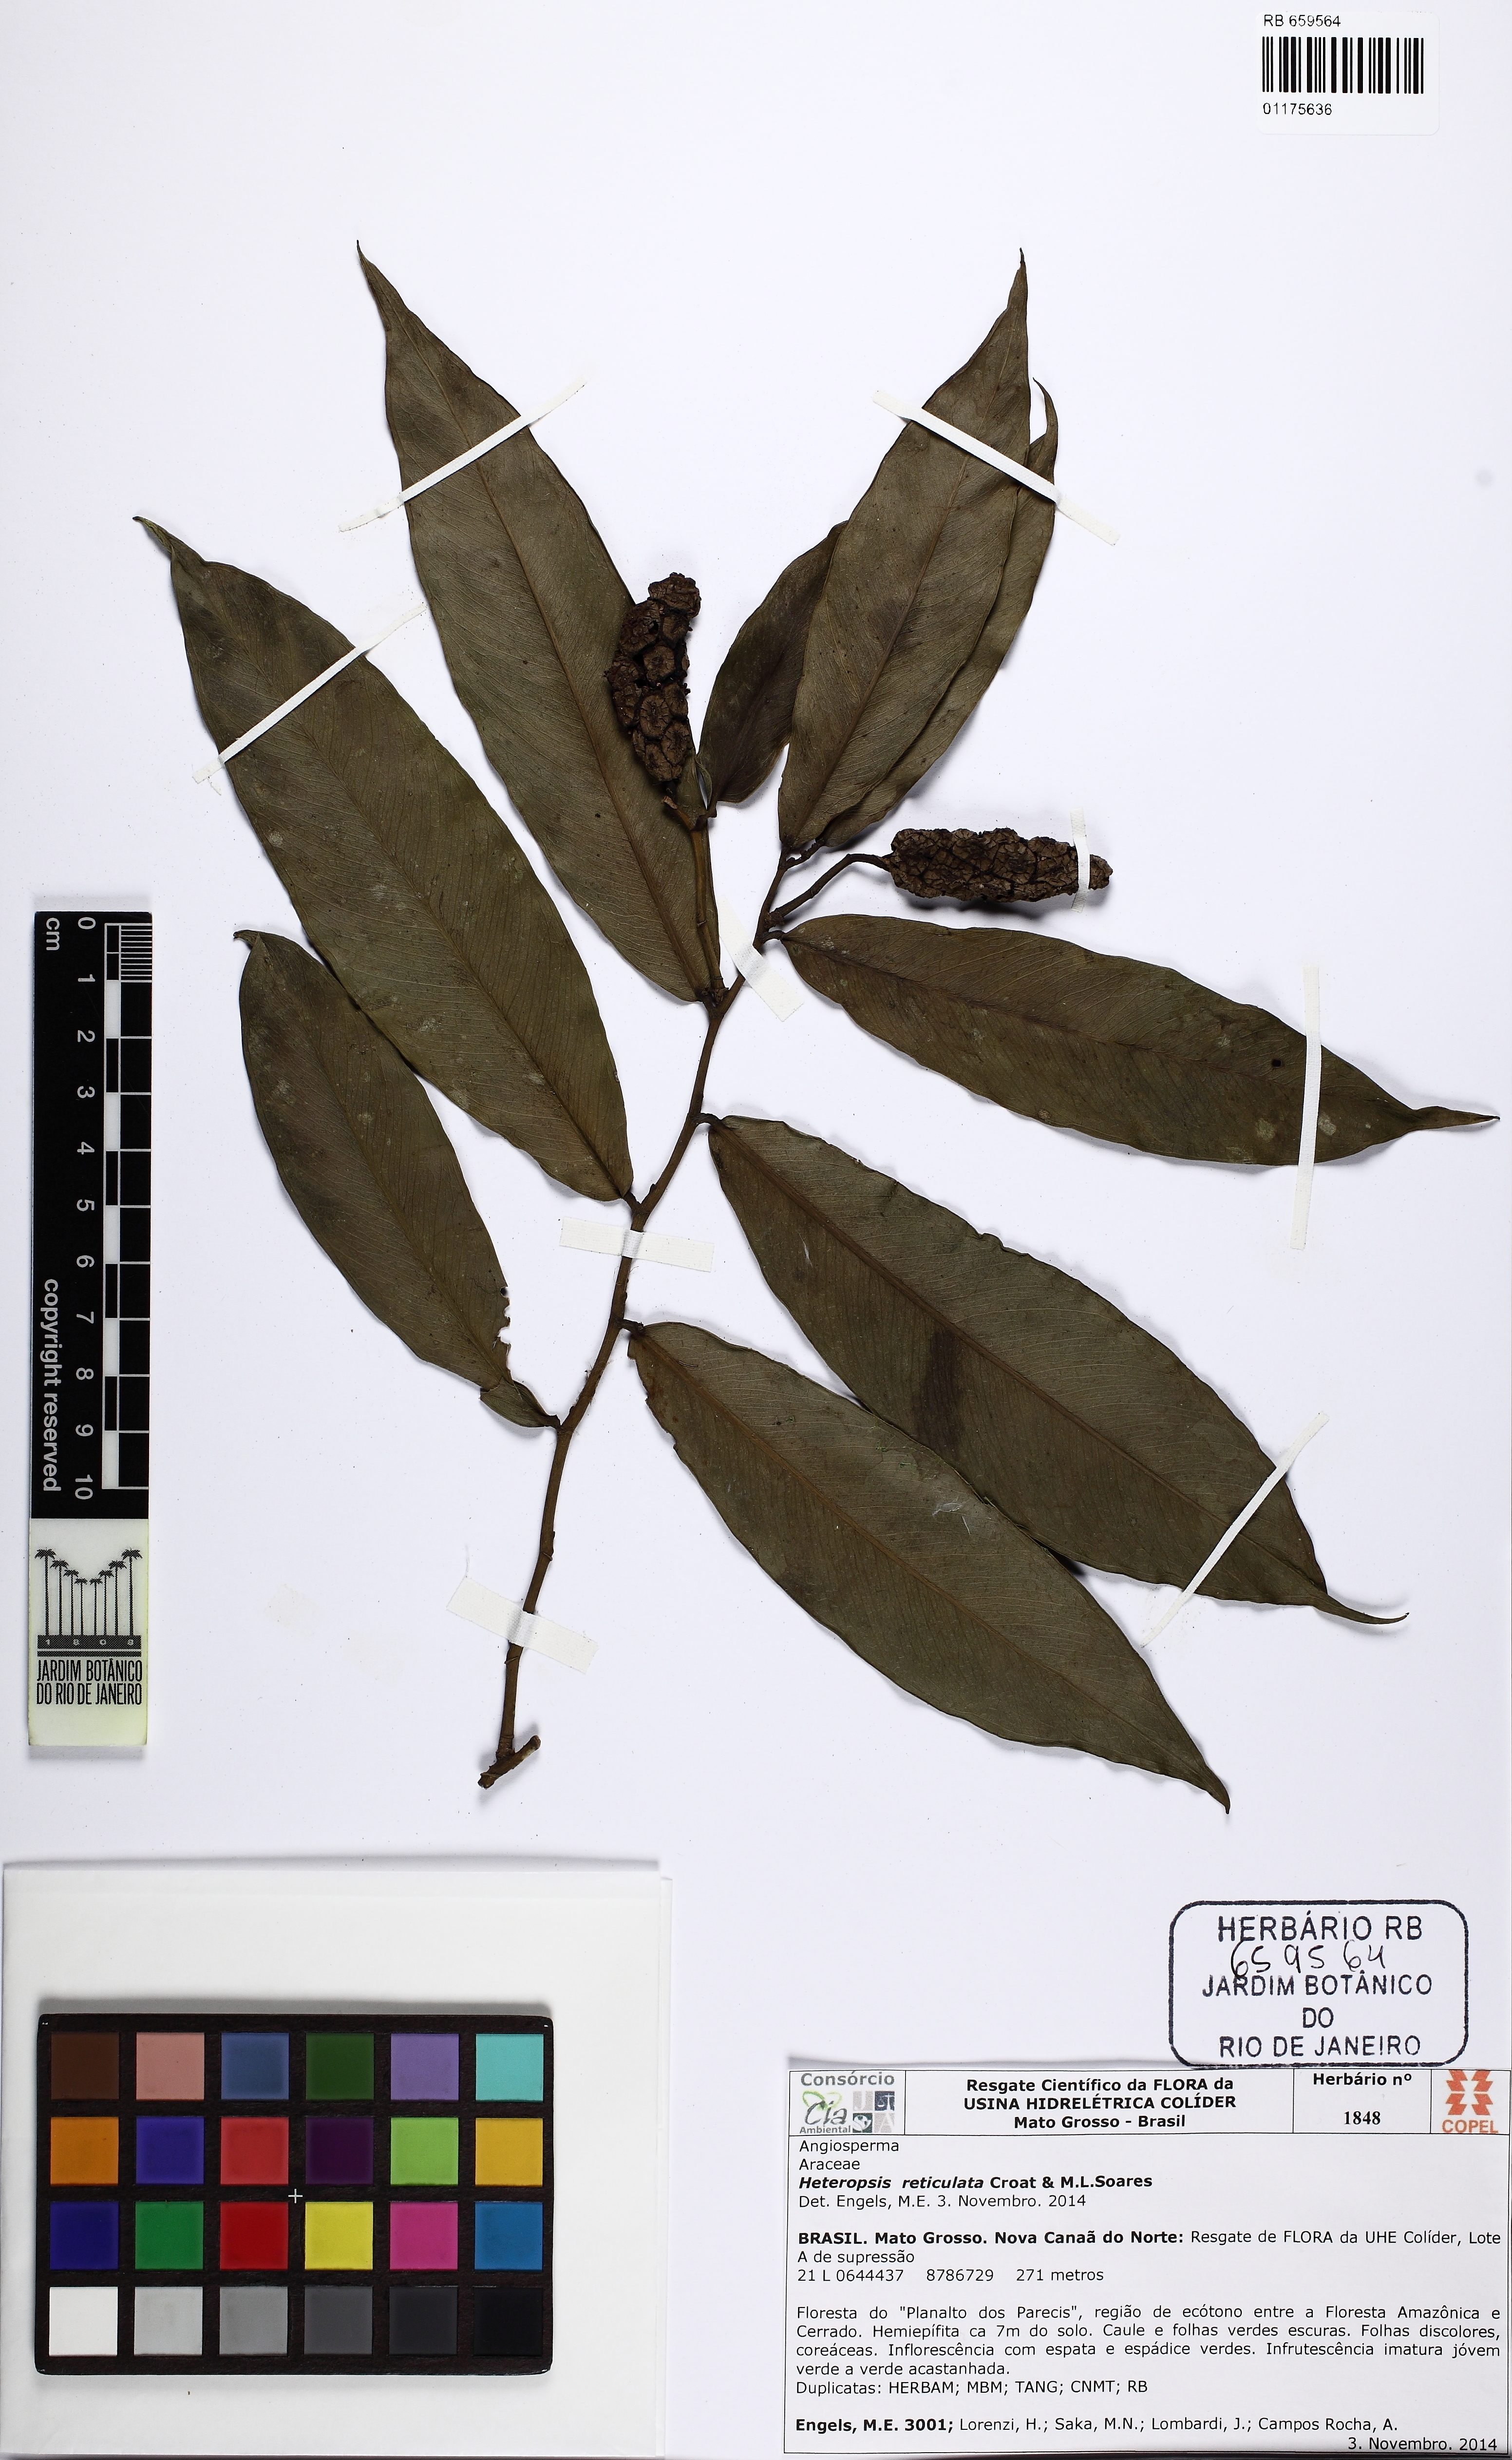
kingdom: Plantae
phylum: Tracheophyta
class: Liliopsida
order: Alismatales
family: Araceae
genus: Heteropsis
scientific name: Heteropsis reticulata
